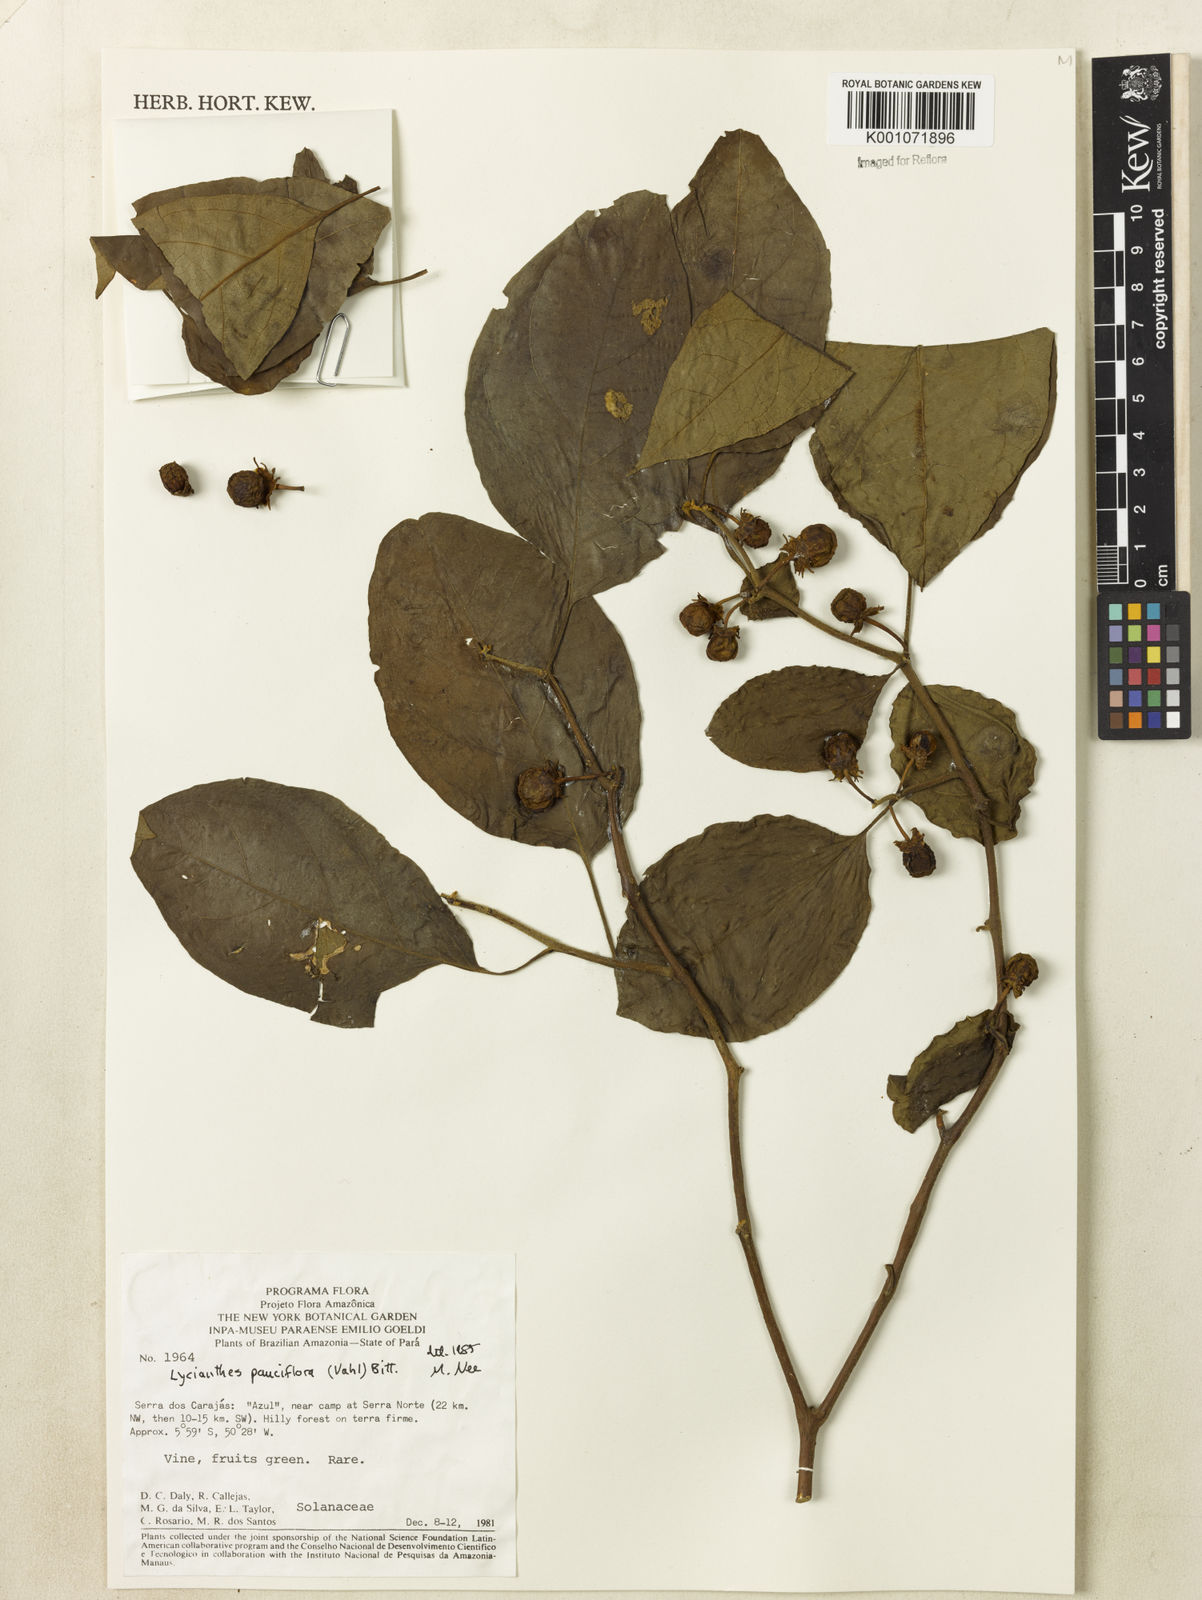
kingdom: Plantae
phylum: Tracheophyta
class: Magnoliopsida
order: Solanales
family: Solanaceae
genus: Lycianthes
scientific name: Lycianthes pauciflora
